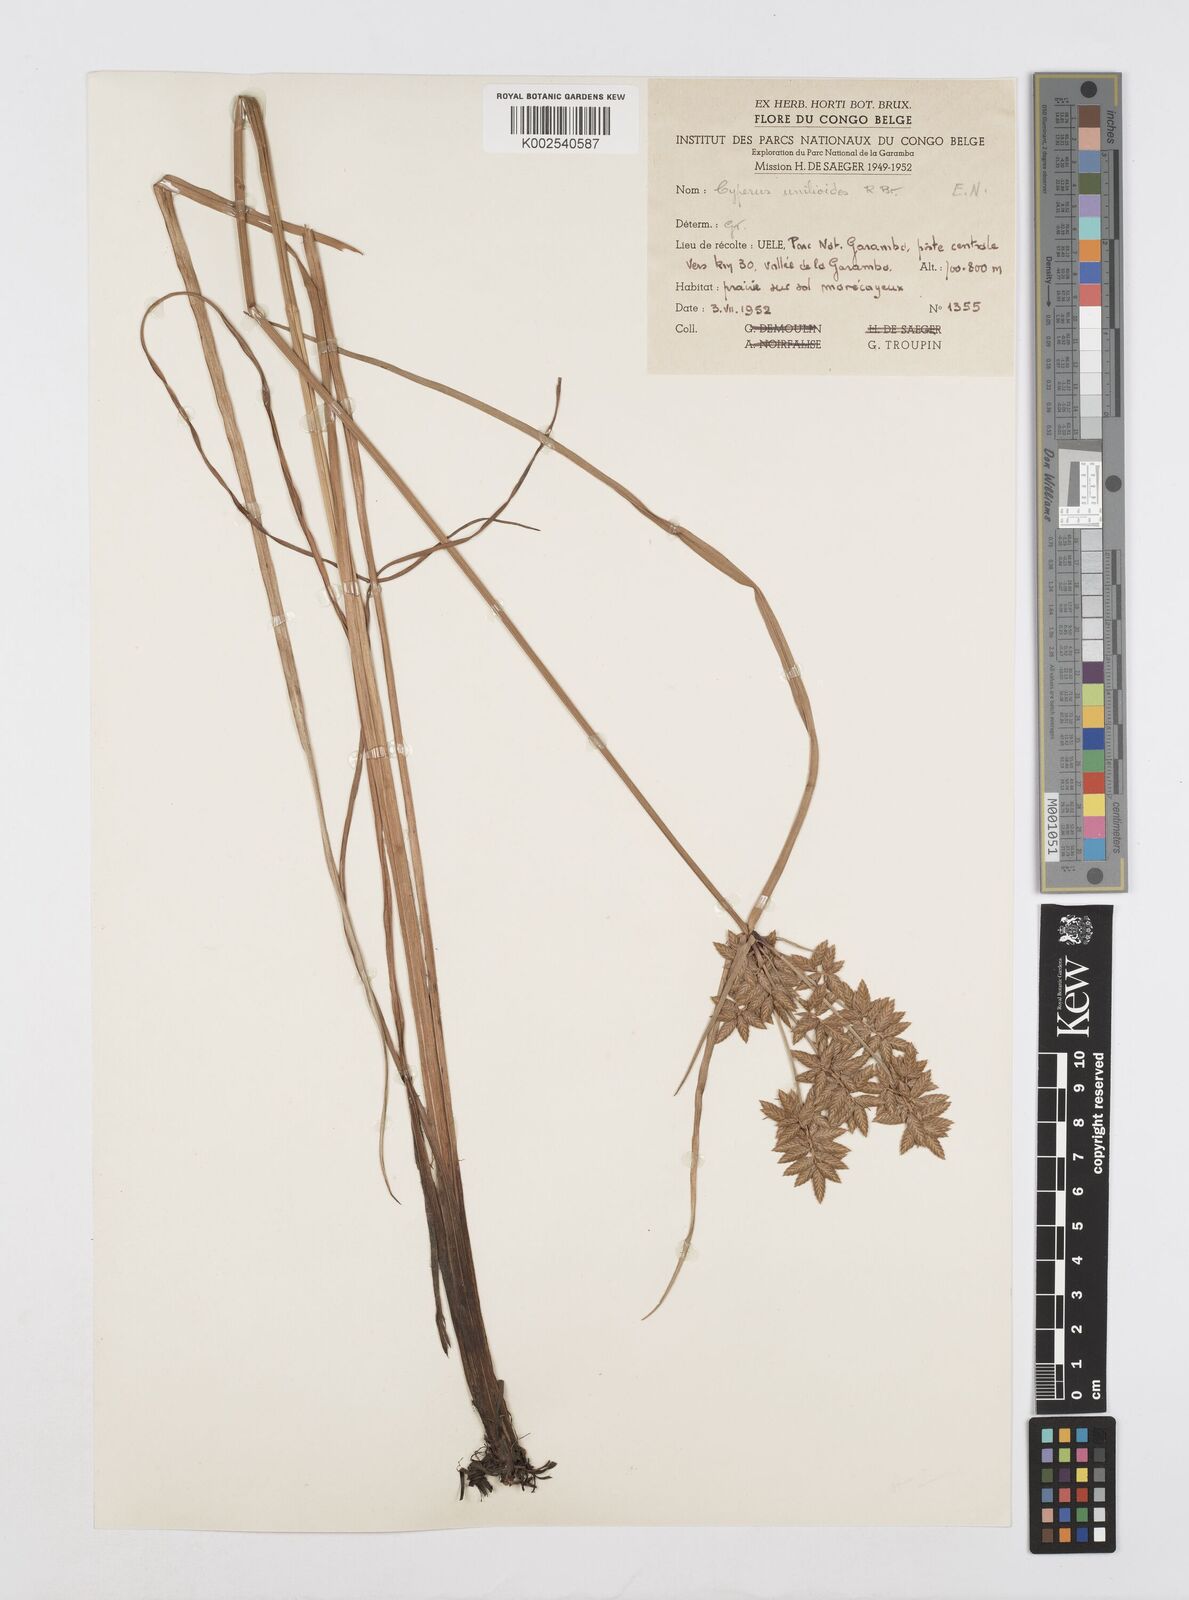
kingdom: Plantae
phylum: Tracheophyta
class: Liliopsida
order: Poales
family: Cyperaceae
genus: Cyperus
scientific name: Cyperus unioloides
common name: Uniola flatsedge
